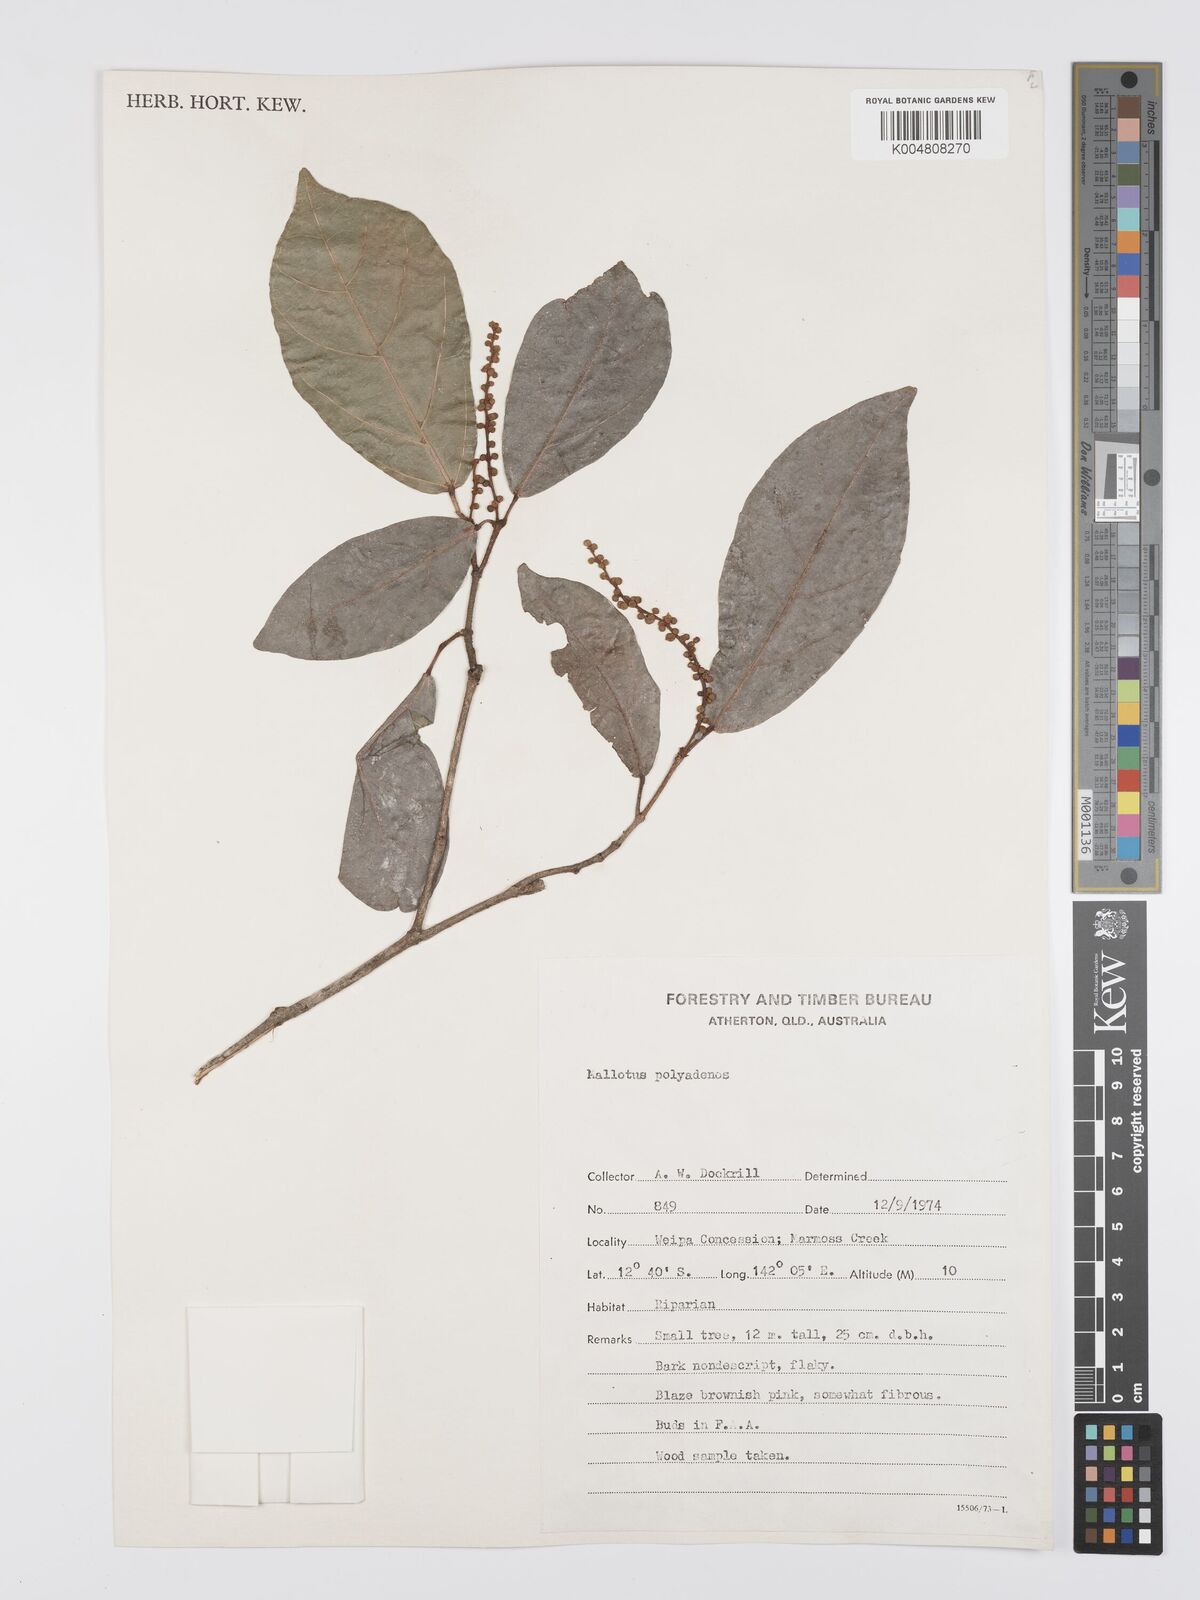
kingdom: Plantae
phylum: Tracheophyta
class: Magnoliopsida
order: Malpighiales
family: Euphorbiaceae
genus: Mallotus
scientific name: Mallotus polyadenos
